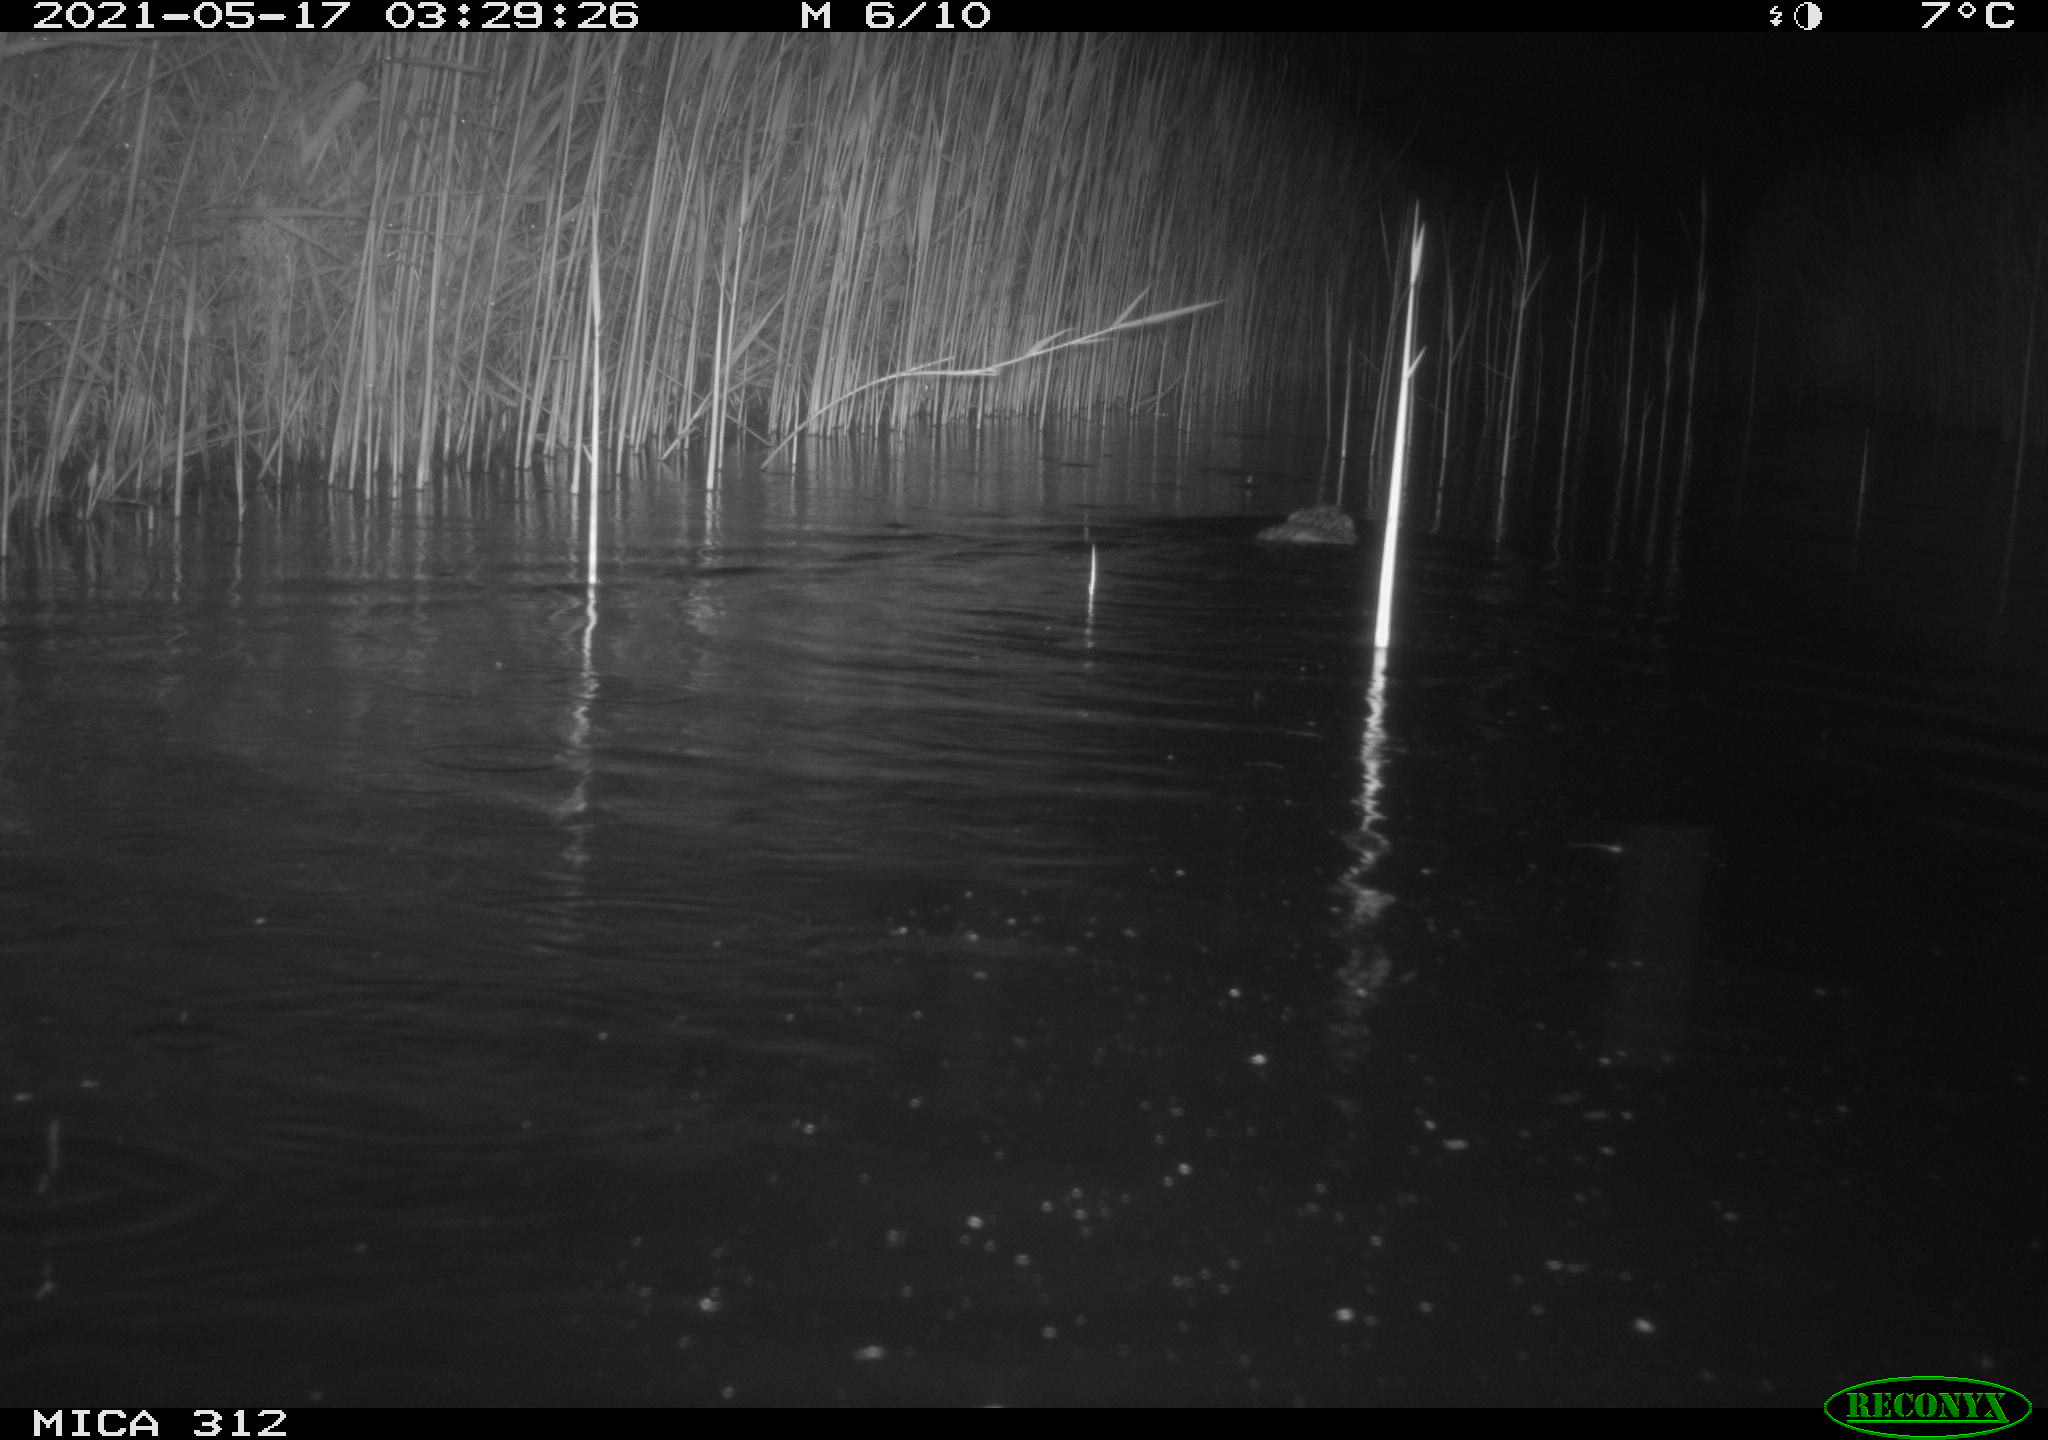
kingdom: Animalia
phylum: Chordata
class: Mammalia
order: Rodentia
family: Cricetidae
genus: Ondatra
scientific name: Ondatra zibethicus
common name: Muskrat
